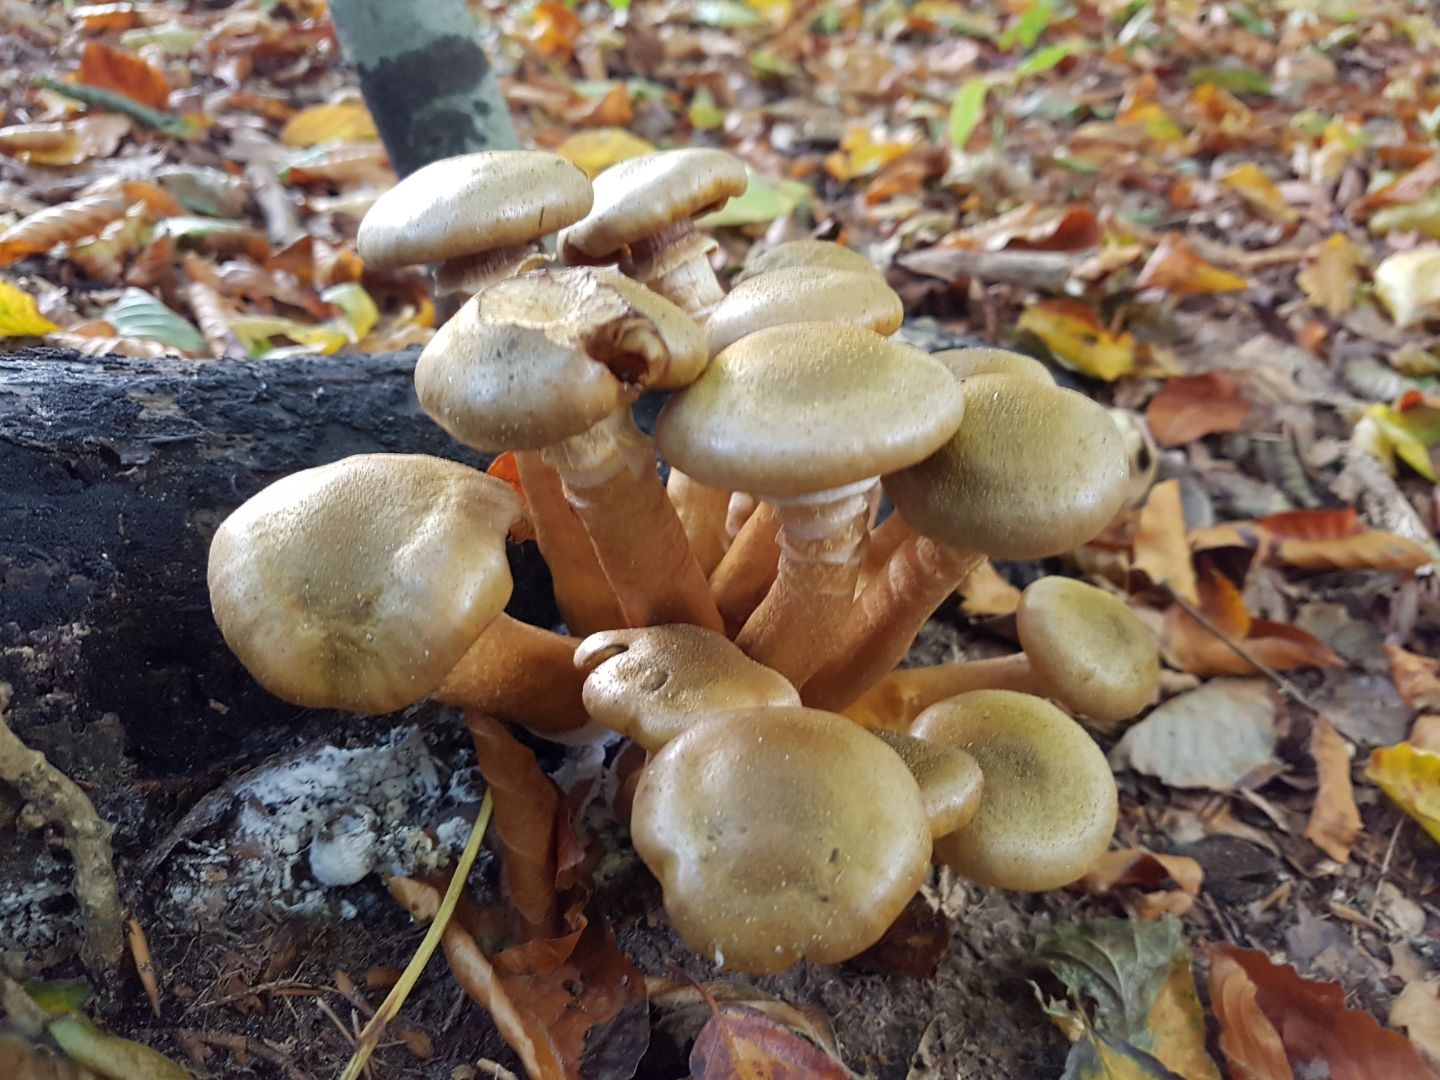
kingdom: Fungi
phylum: Basidiomycota
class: Agaricomycetes
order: Agaricales
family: Physalacriaceae
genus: Armillaria
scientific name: Armillaria mellea
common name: ægte honningsvamp
